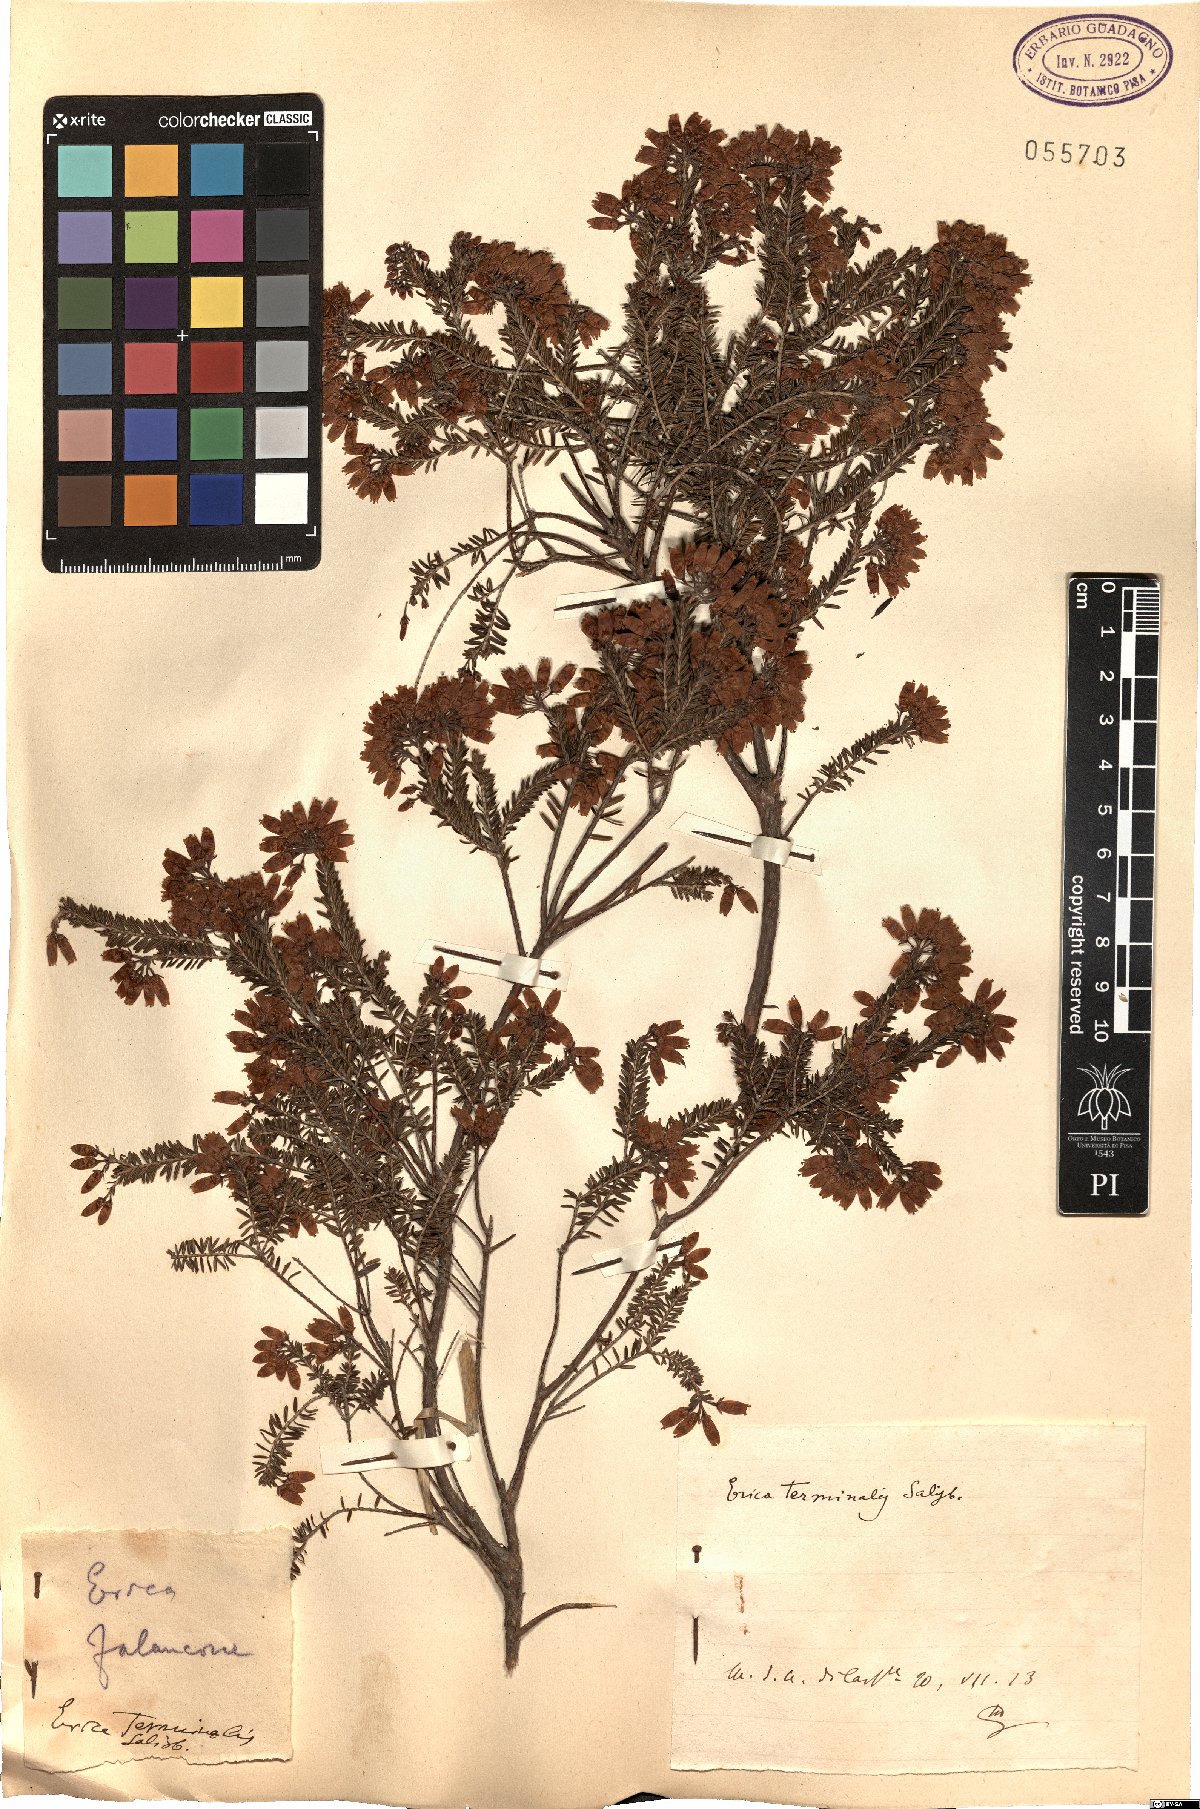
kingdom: Plantae
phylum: Tracheophyta
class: Magnoliopsida
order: Ericales
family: Ericaceae
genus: Erica
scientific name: Erica terminalis
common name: Corsican heath
